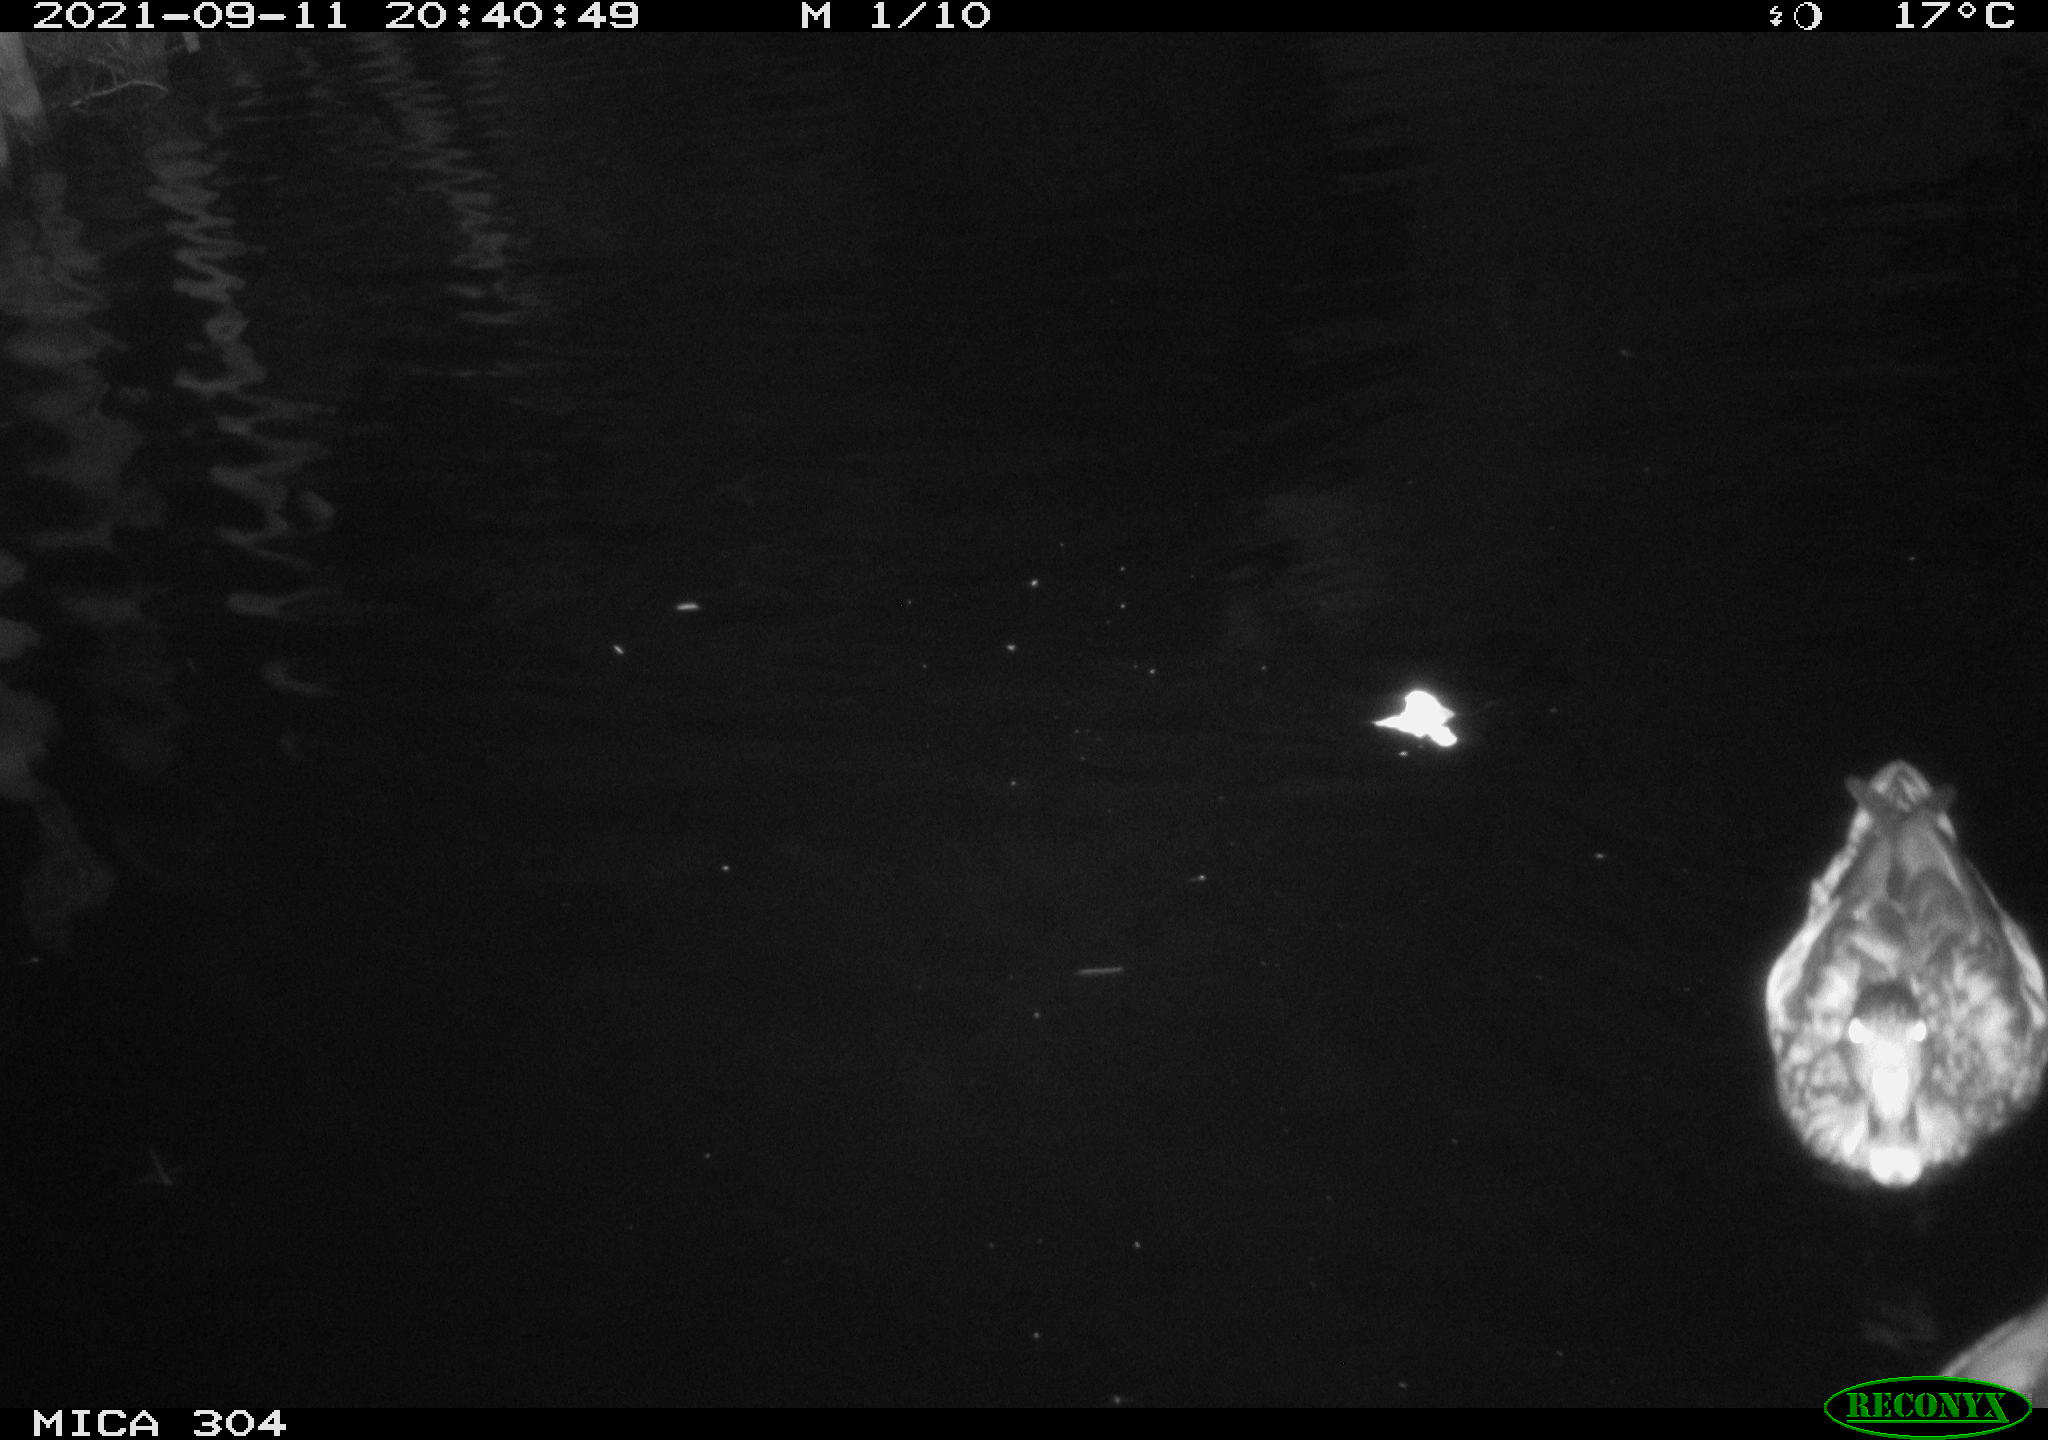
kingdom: Animalia
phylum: Chordata
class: Aves
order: Anseriformes
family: Anatidae
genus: Anas
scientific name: Anas platyrhynchos
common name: Mallard
